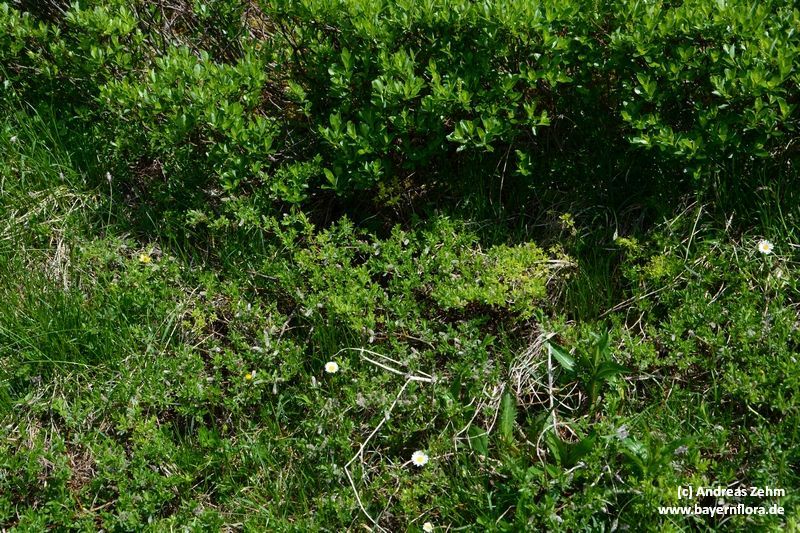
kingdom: Plantae
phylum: Tracheophyta
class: Magnoliopsida
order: Malpighiales
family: Salicaceae
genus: Salix
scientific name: Salix alpina
